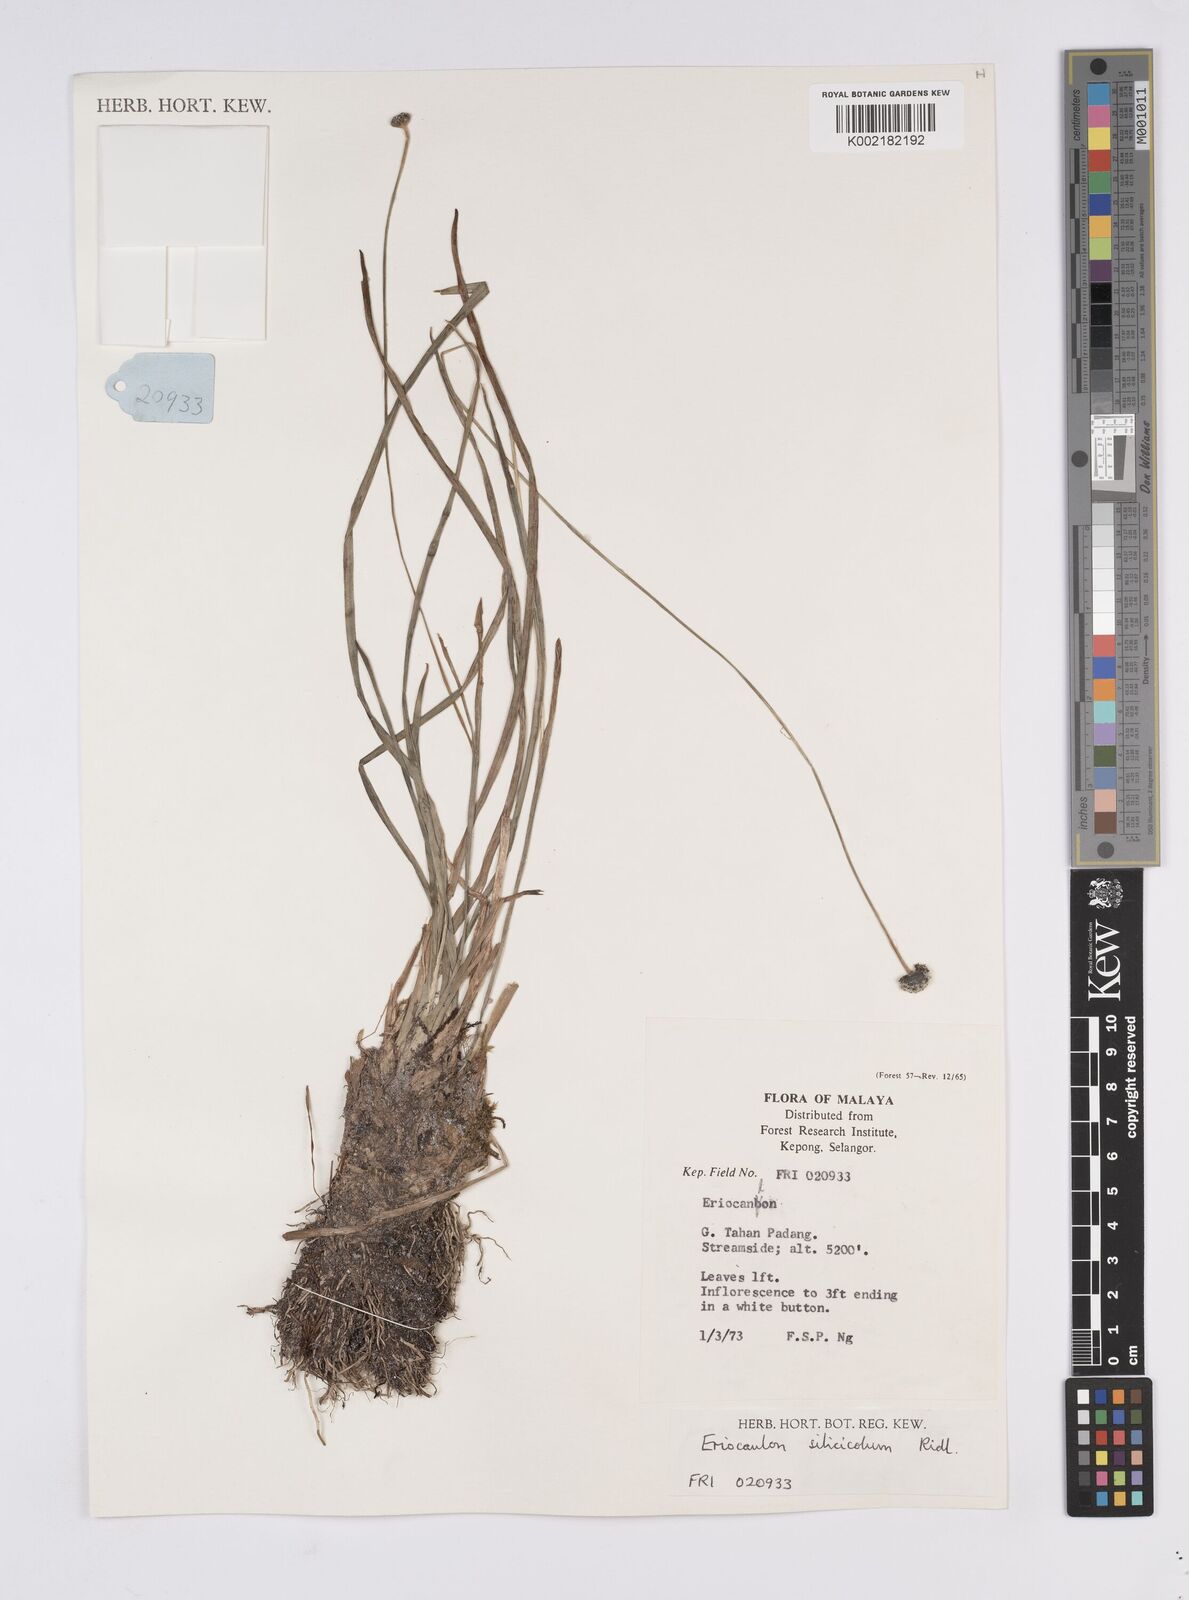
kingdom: Plantae
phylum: Tracheophyta
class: Liliopsida
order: Poales
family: Eriocaulaceae
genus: Eriocaulon
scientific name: Eriocaulon silicicola
